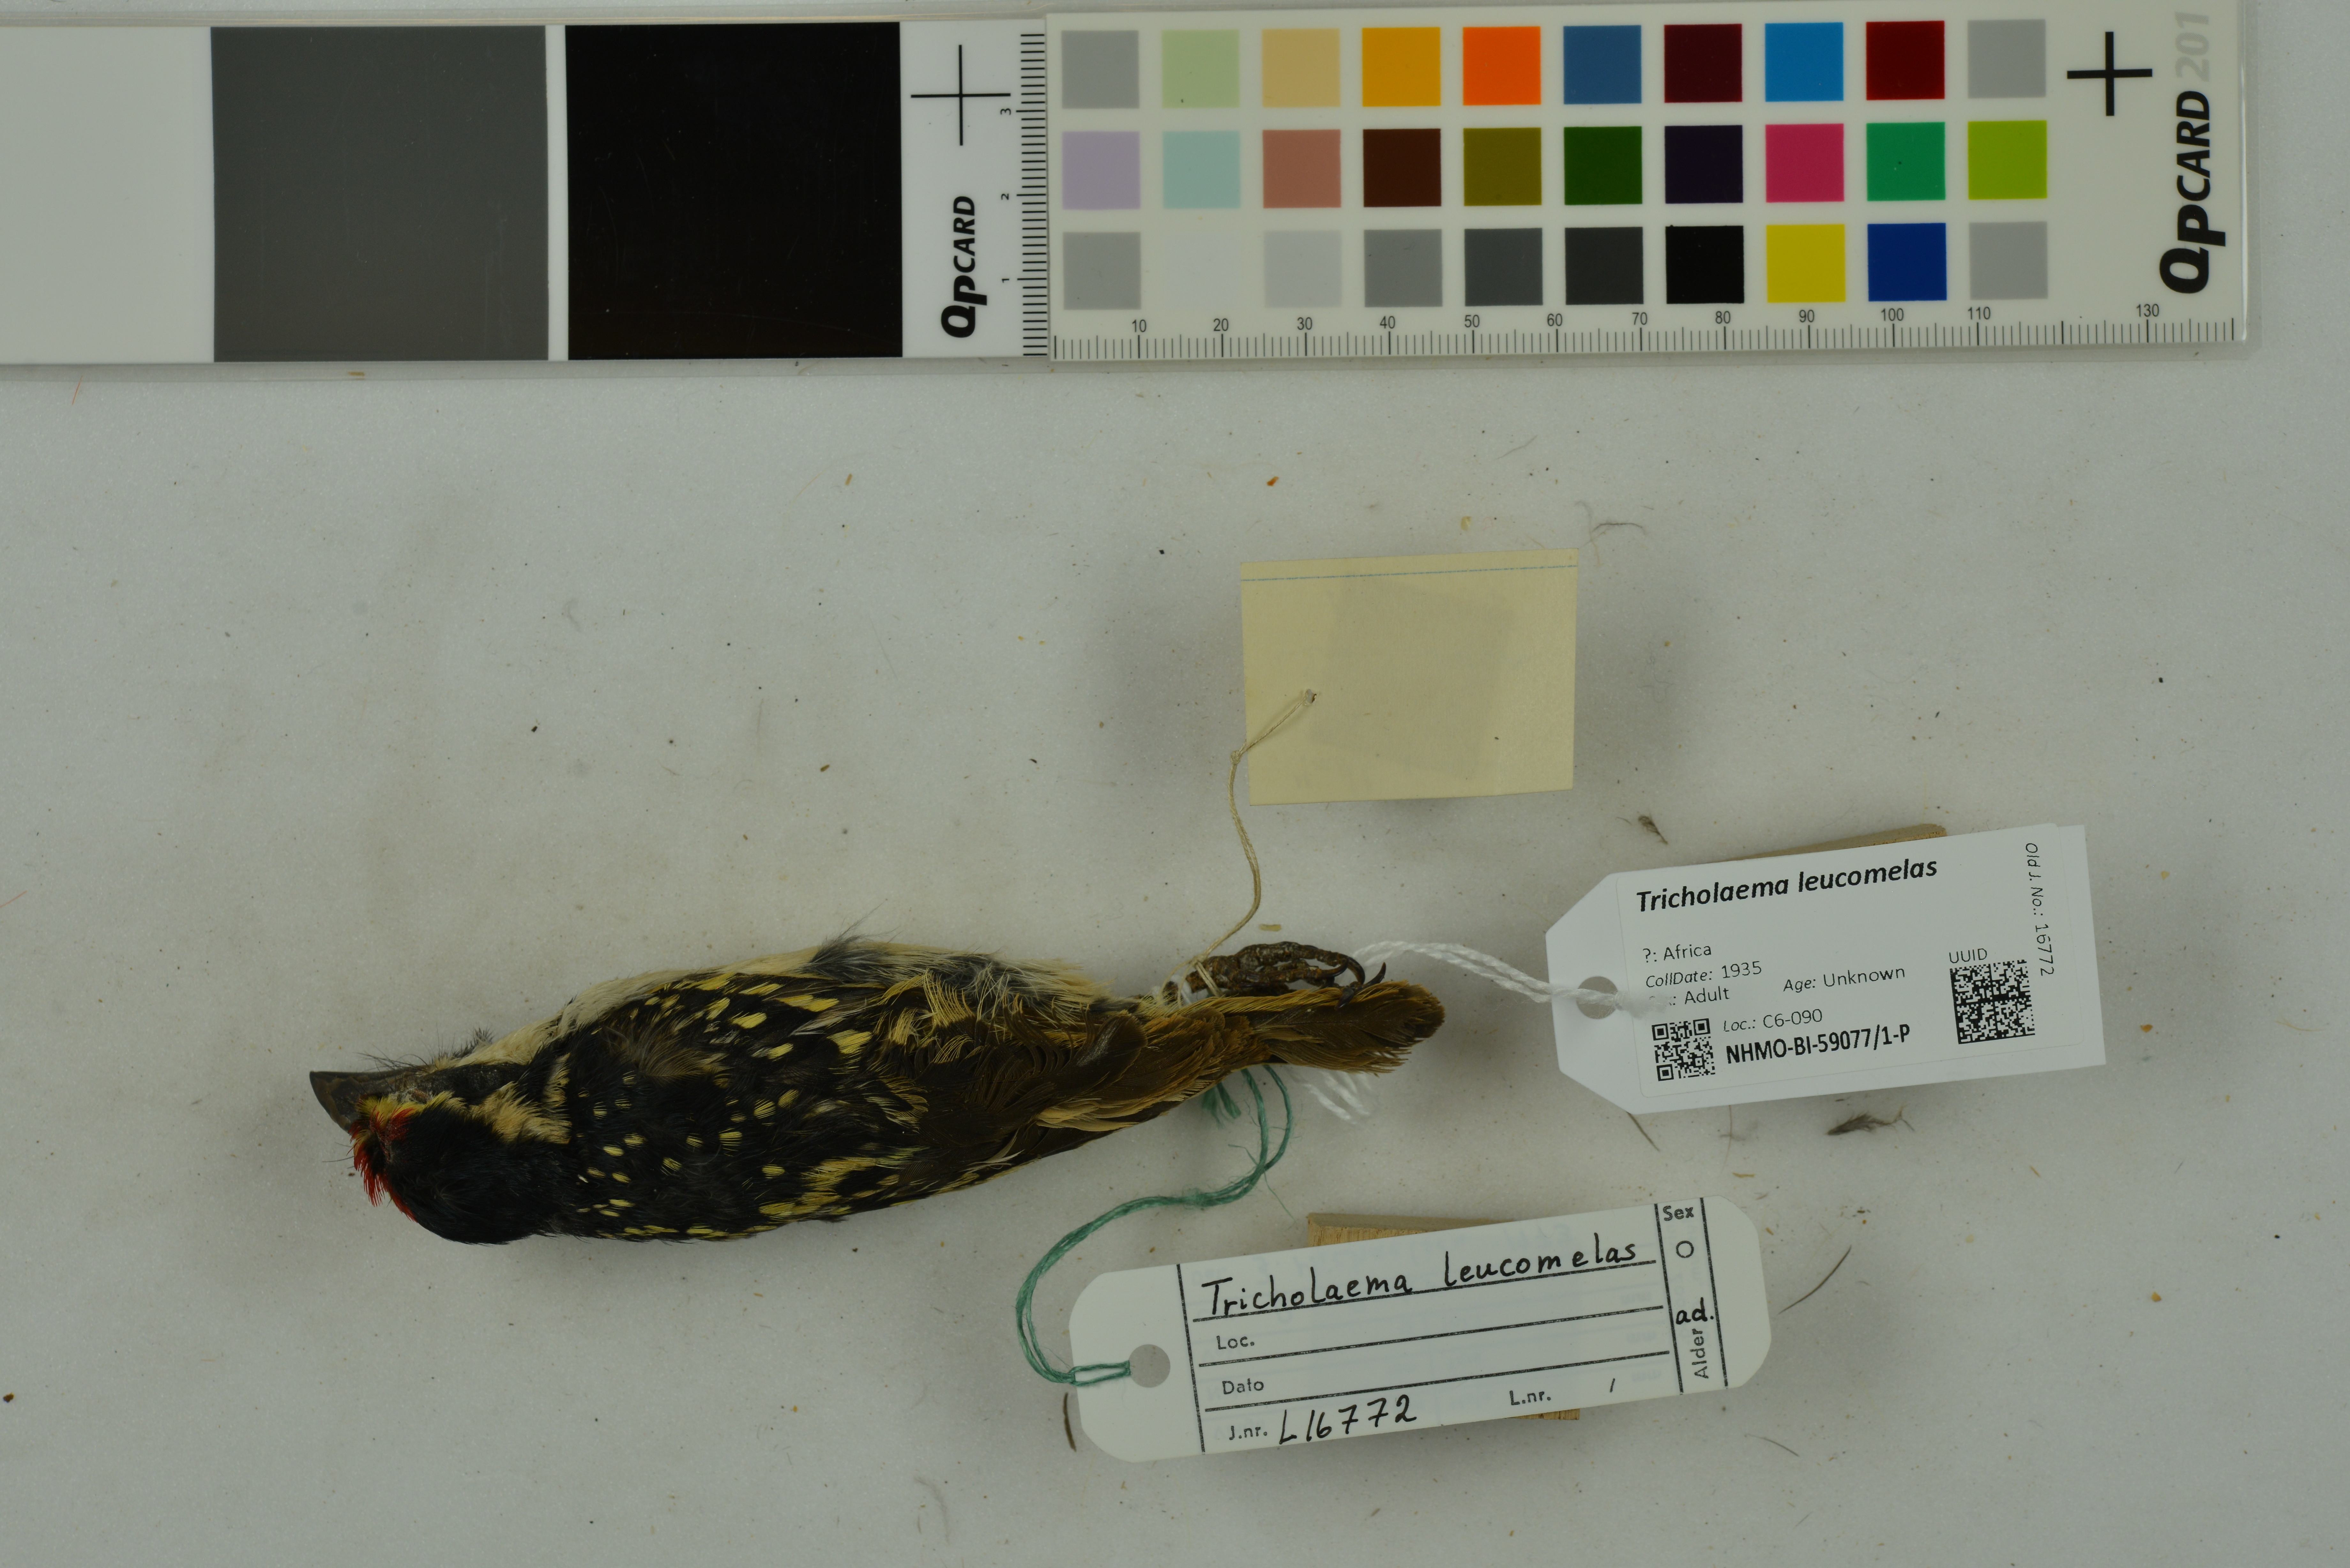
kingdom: Animalia
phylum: Chordata
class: Aves
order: Piciformes
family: Lybiidae
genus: Tricholaema
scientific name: Tricholaema leucomelas
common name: Acacia pied barbet
